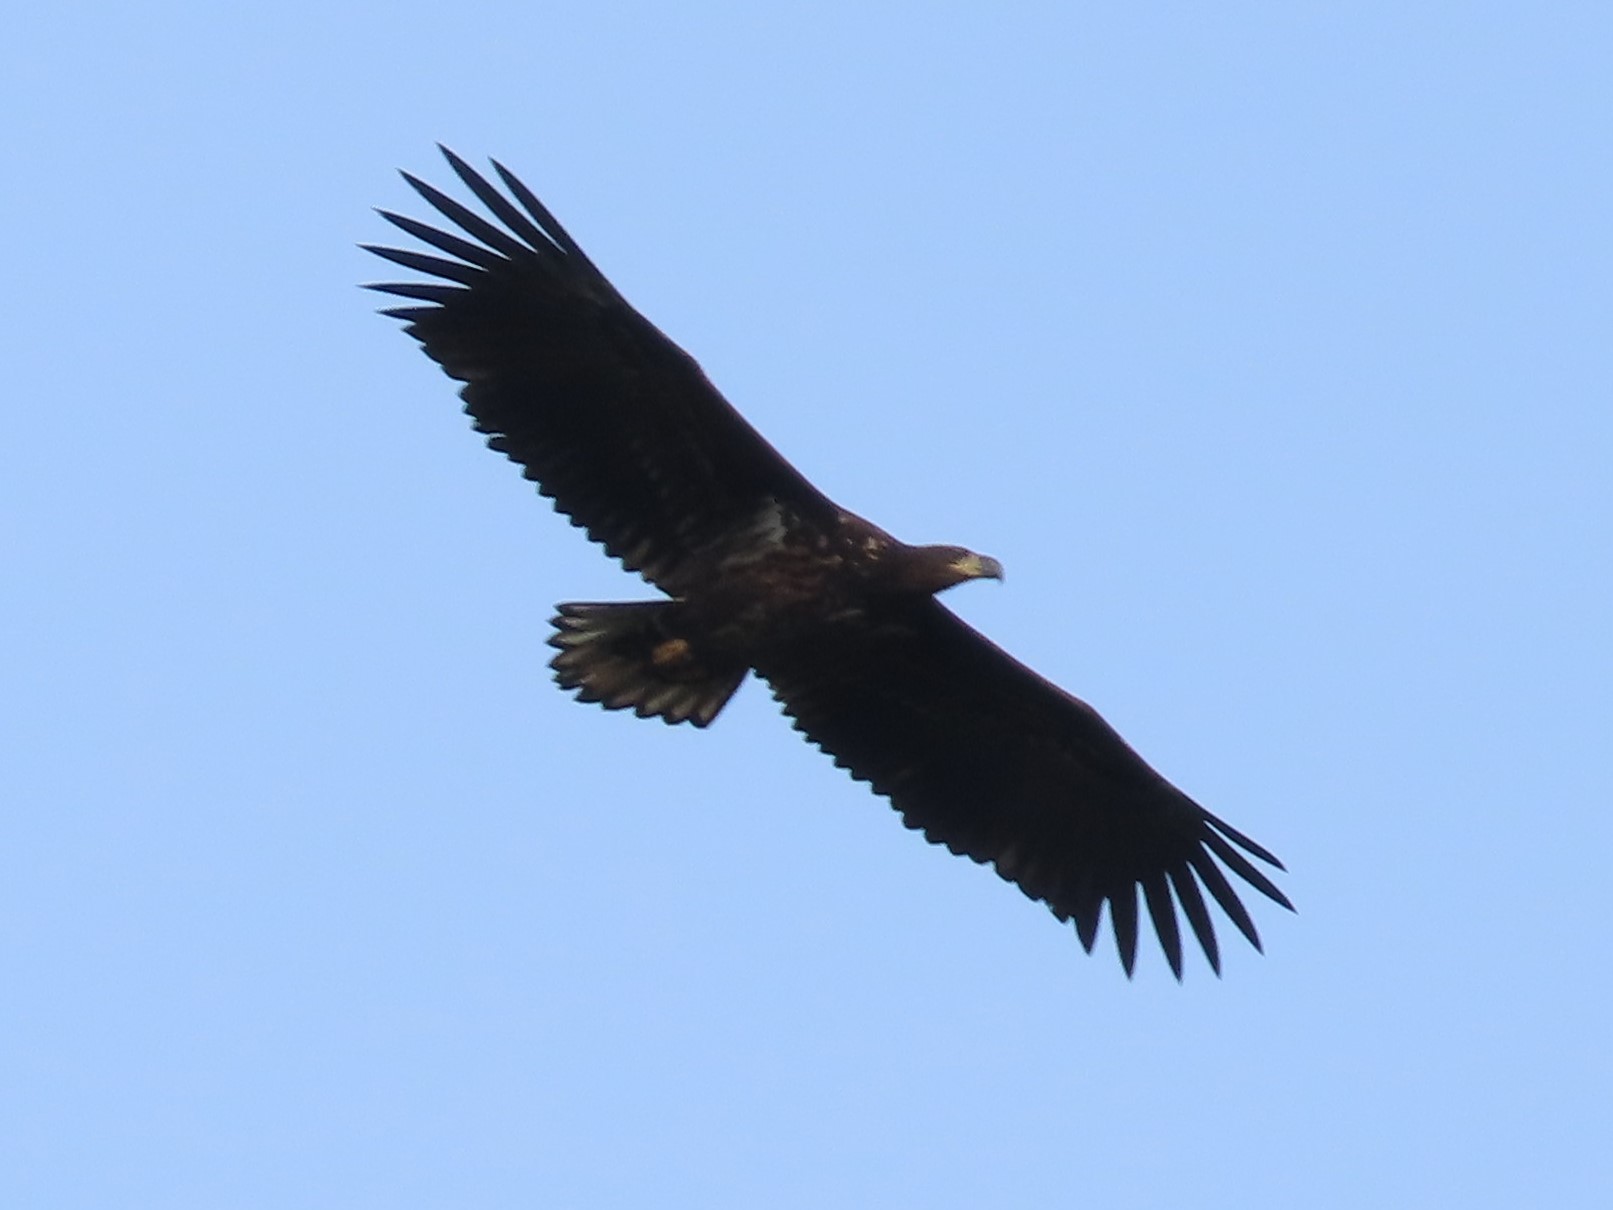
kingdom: Animalia
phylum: Chordata
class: Aves
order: Accipitriformes
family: Accipitridae
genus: Haliaeetus
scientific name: Haliaeetus albicilla
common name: Havørn
